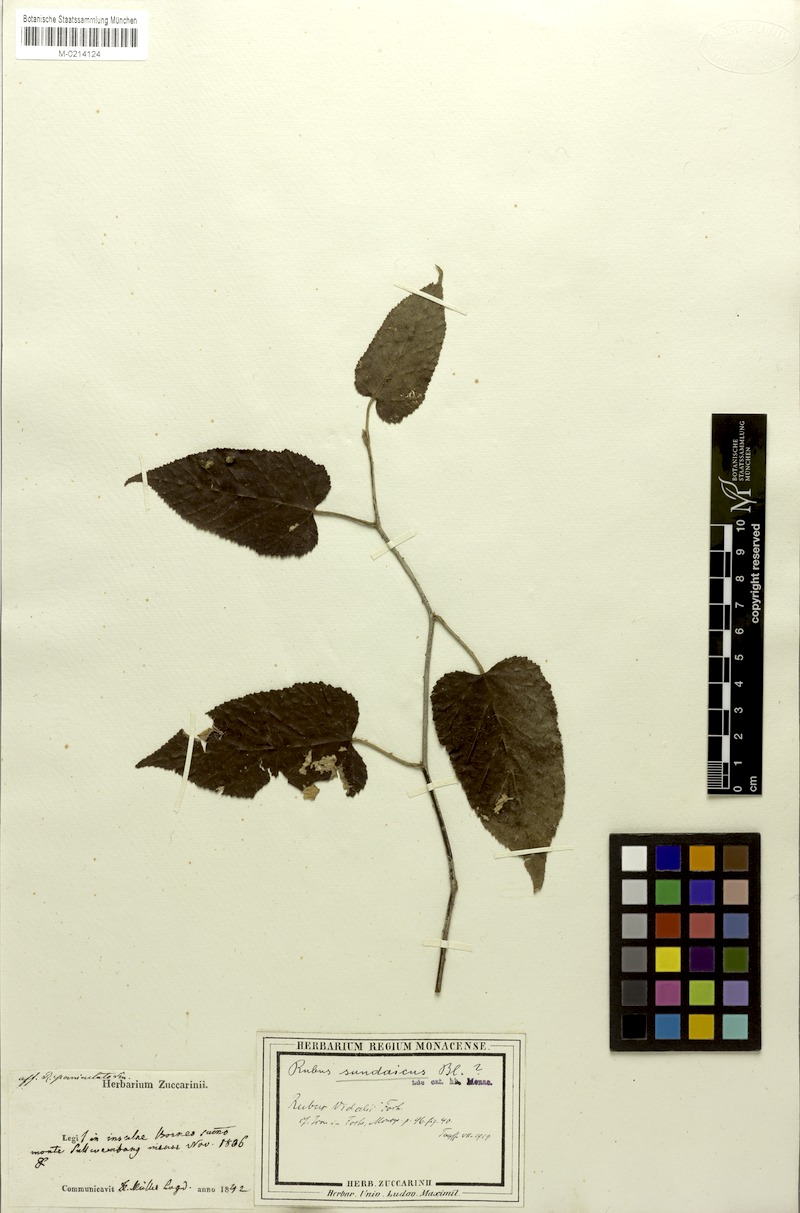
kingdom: Plantae
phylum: Tracheophyta
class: Magnoliopsida
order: Rosales
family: Rosaceae
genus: Rubus
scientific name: Rubus sundaicus
